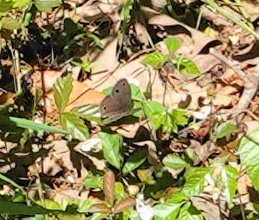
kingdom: Animalia
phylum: Arthropoda
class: Insecta
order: Lepidoptera
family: Nymphalidae
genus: Euptychia
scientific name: Euptychia cymela
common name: Little Wood Satyr
